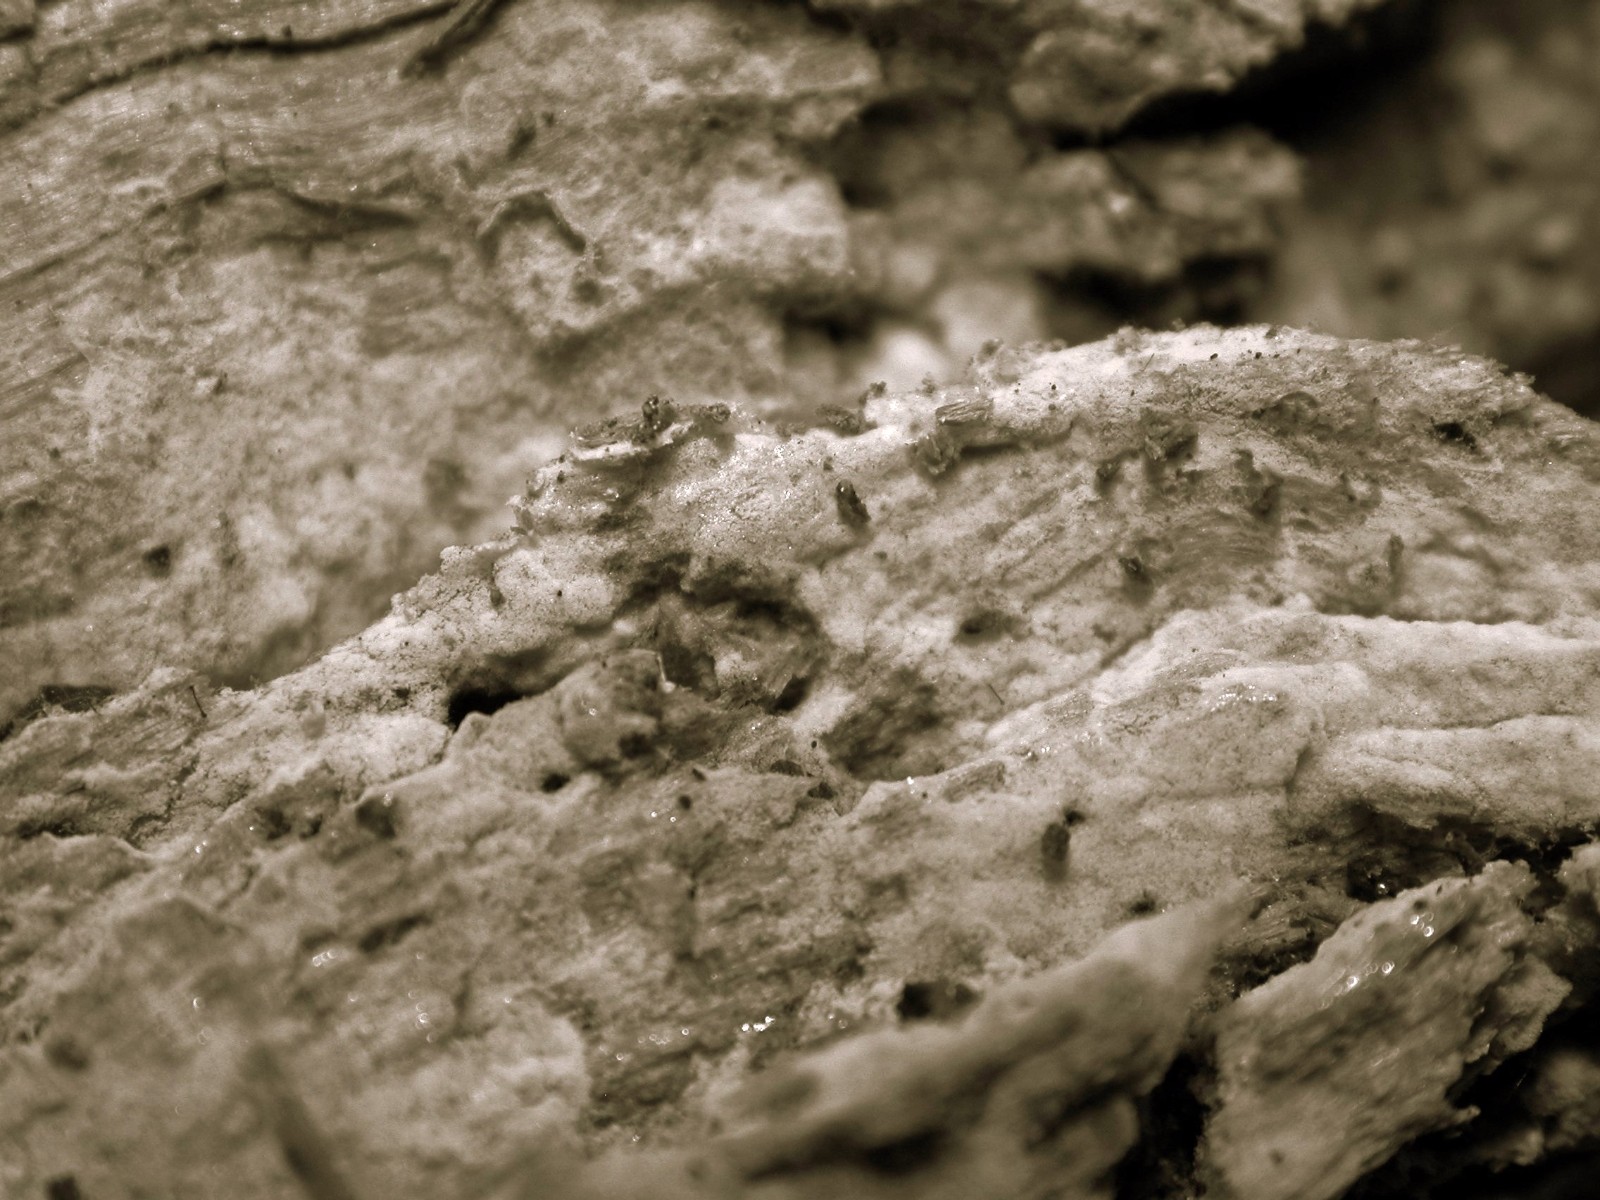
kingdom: Fungi
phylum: Basidiomycota
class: Agaricomycetes
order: Cantharellales
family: Botryobasidiaceae
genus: Botryobasidium
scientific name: Botryobasidium subcoronatum
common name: almindelig spindhinde
